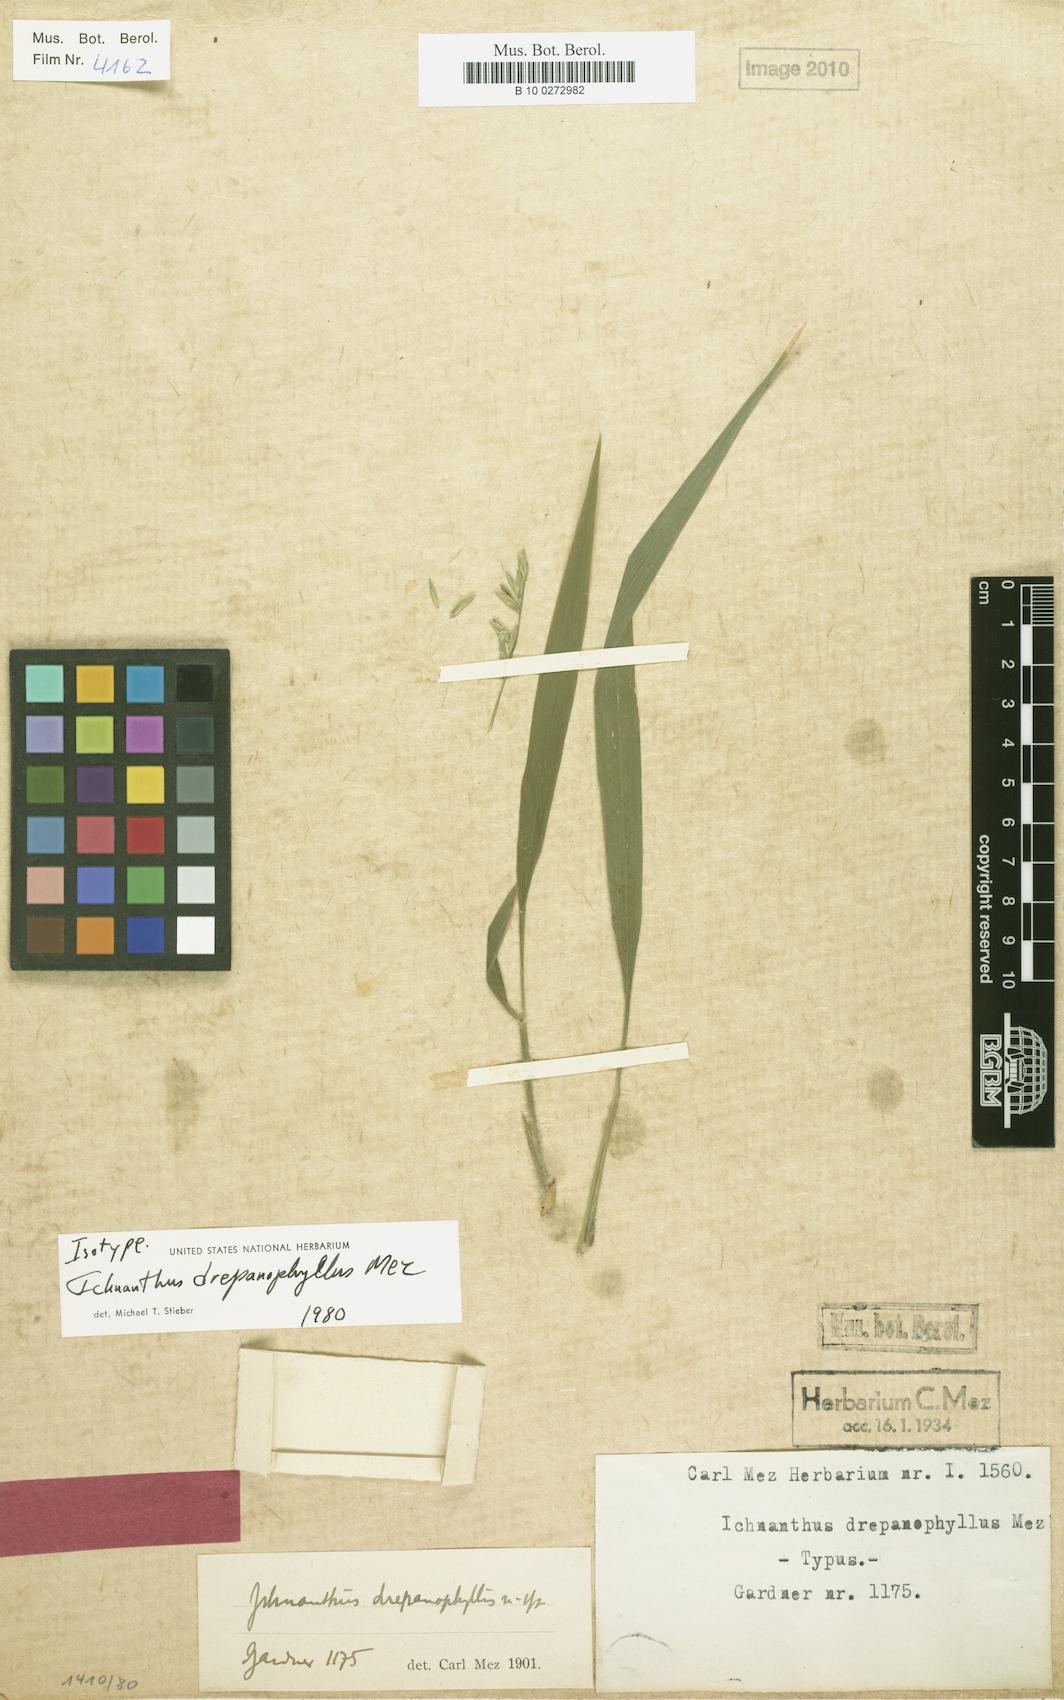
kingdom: Plantae
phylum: Tracheophyta
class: Liliopsida
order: Poales
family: Poaceae
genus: Ichnanthus
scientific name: Ichnanthus riedelii
